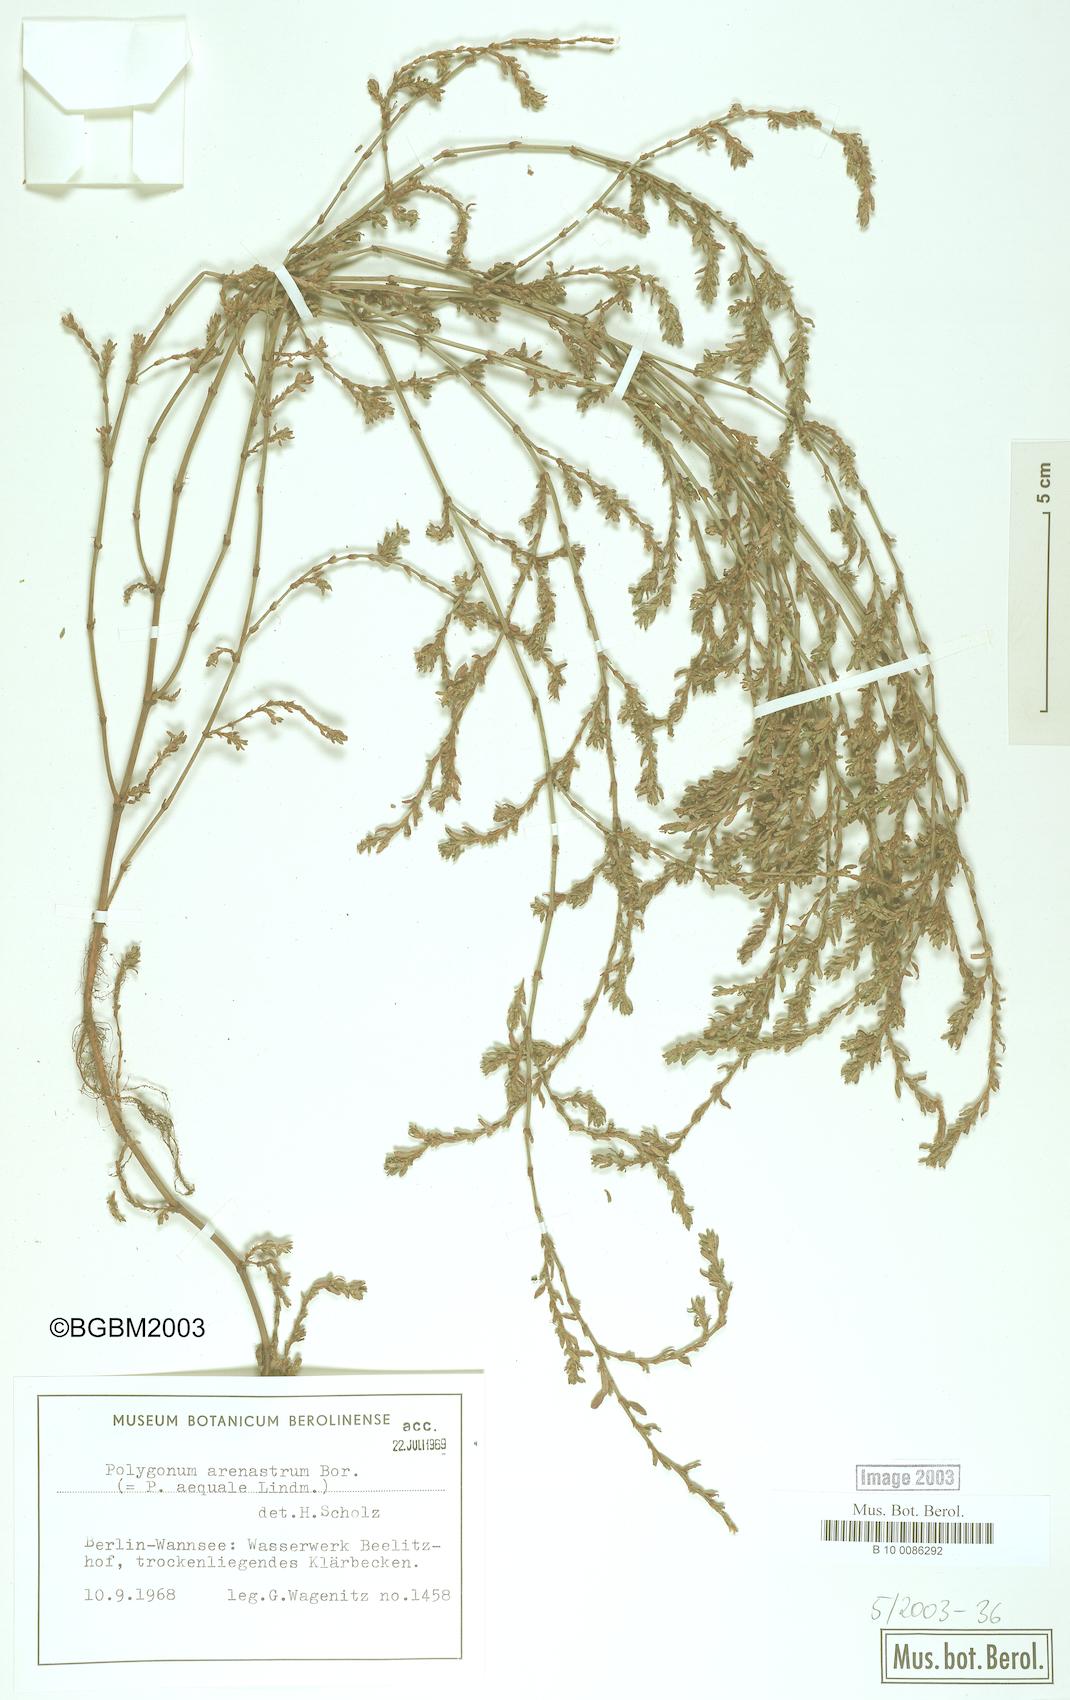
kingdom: Plantae
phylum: Tracheophyta
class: Magnoliopsida
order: Caryophyllales
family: Polygonaceae
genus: Polygonum
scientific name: Polygonum arenastrum
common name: Equal-leaved knotgrass
